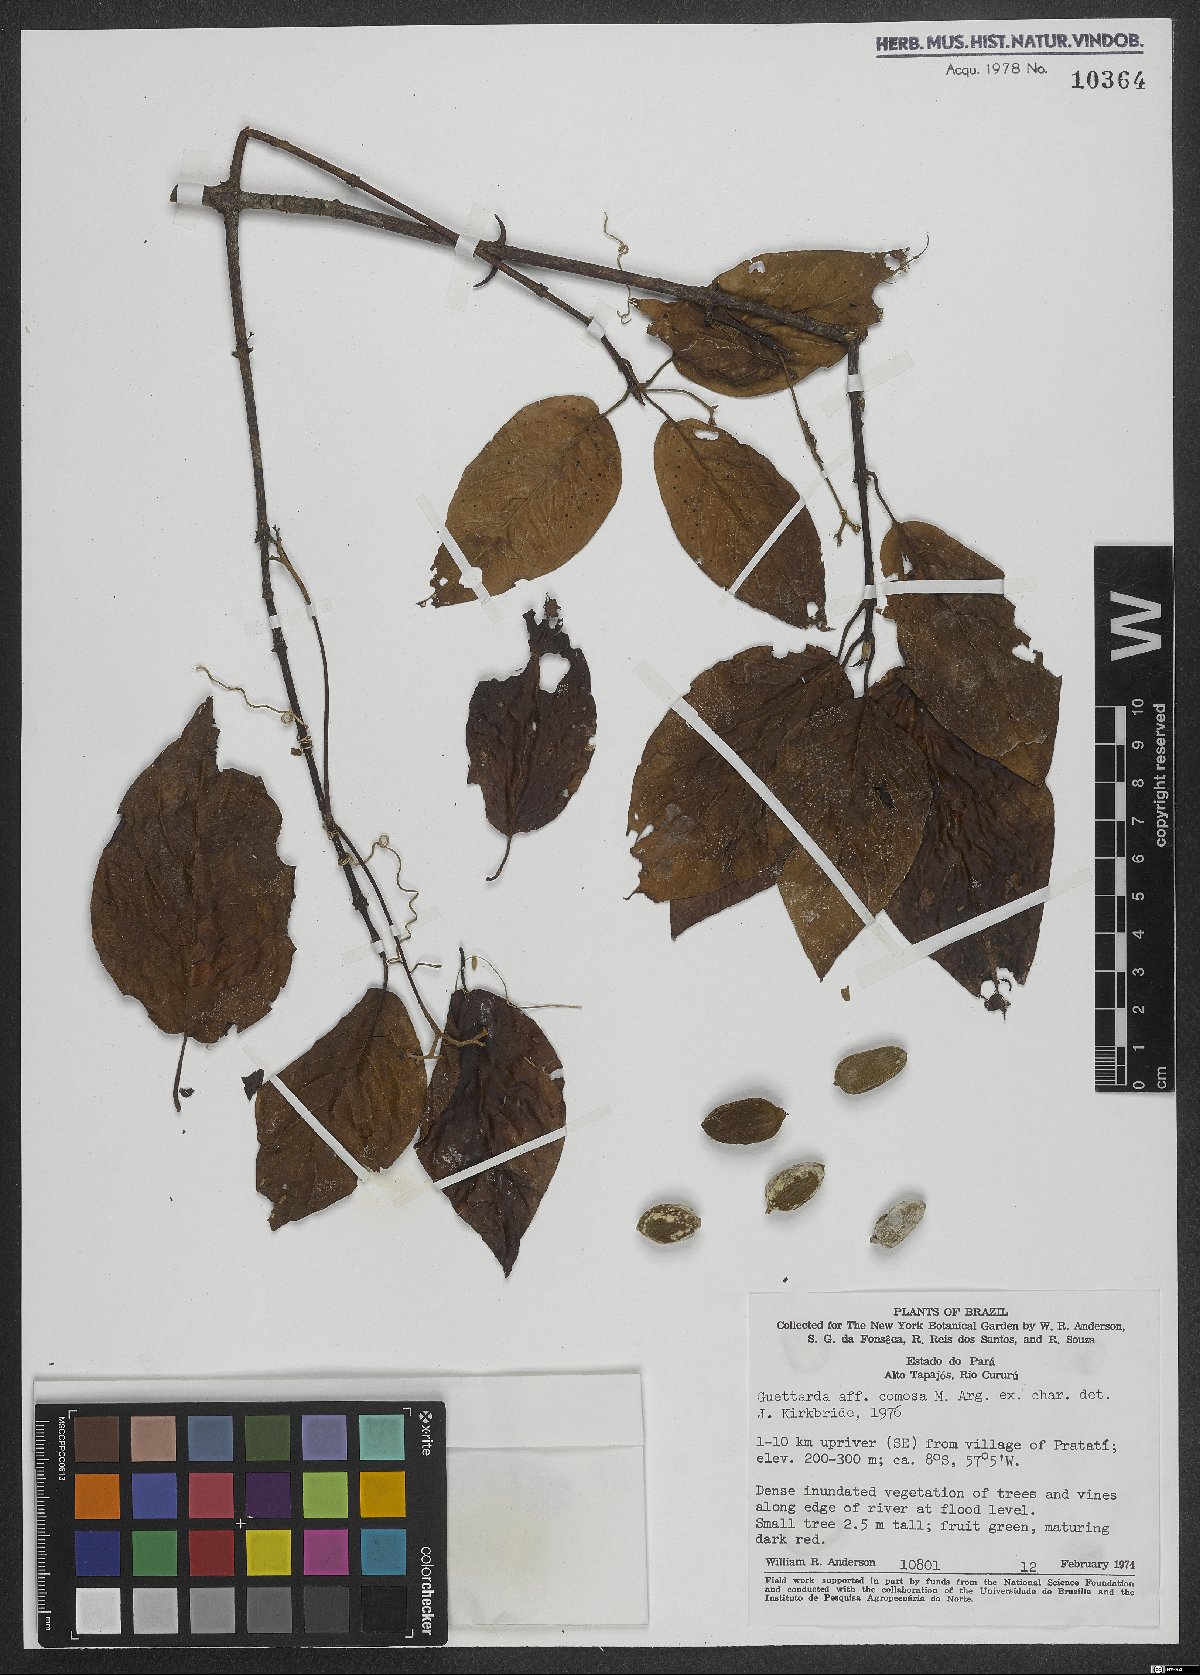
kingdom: Plantae
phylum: Tracheophyta
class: Magnoliopsida
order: Gentianales
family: Rubiaceae
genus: Guettarda
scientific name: Guettarda comosa
